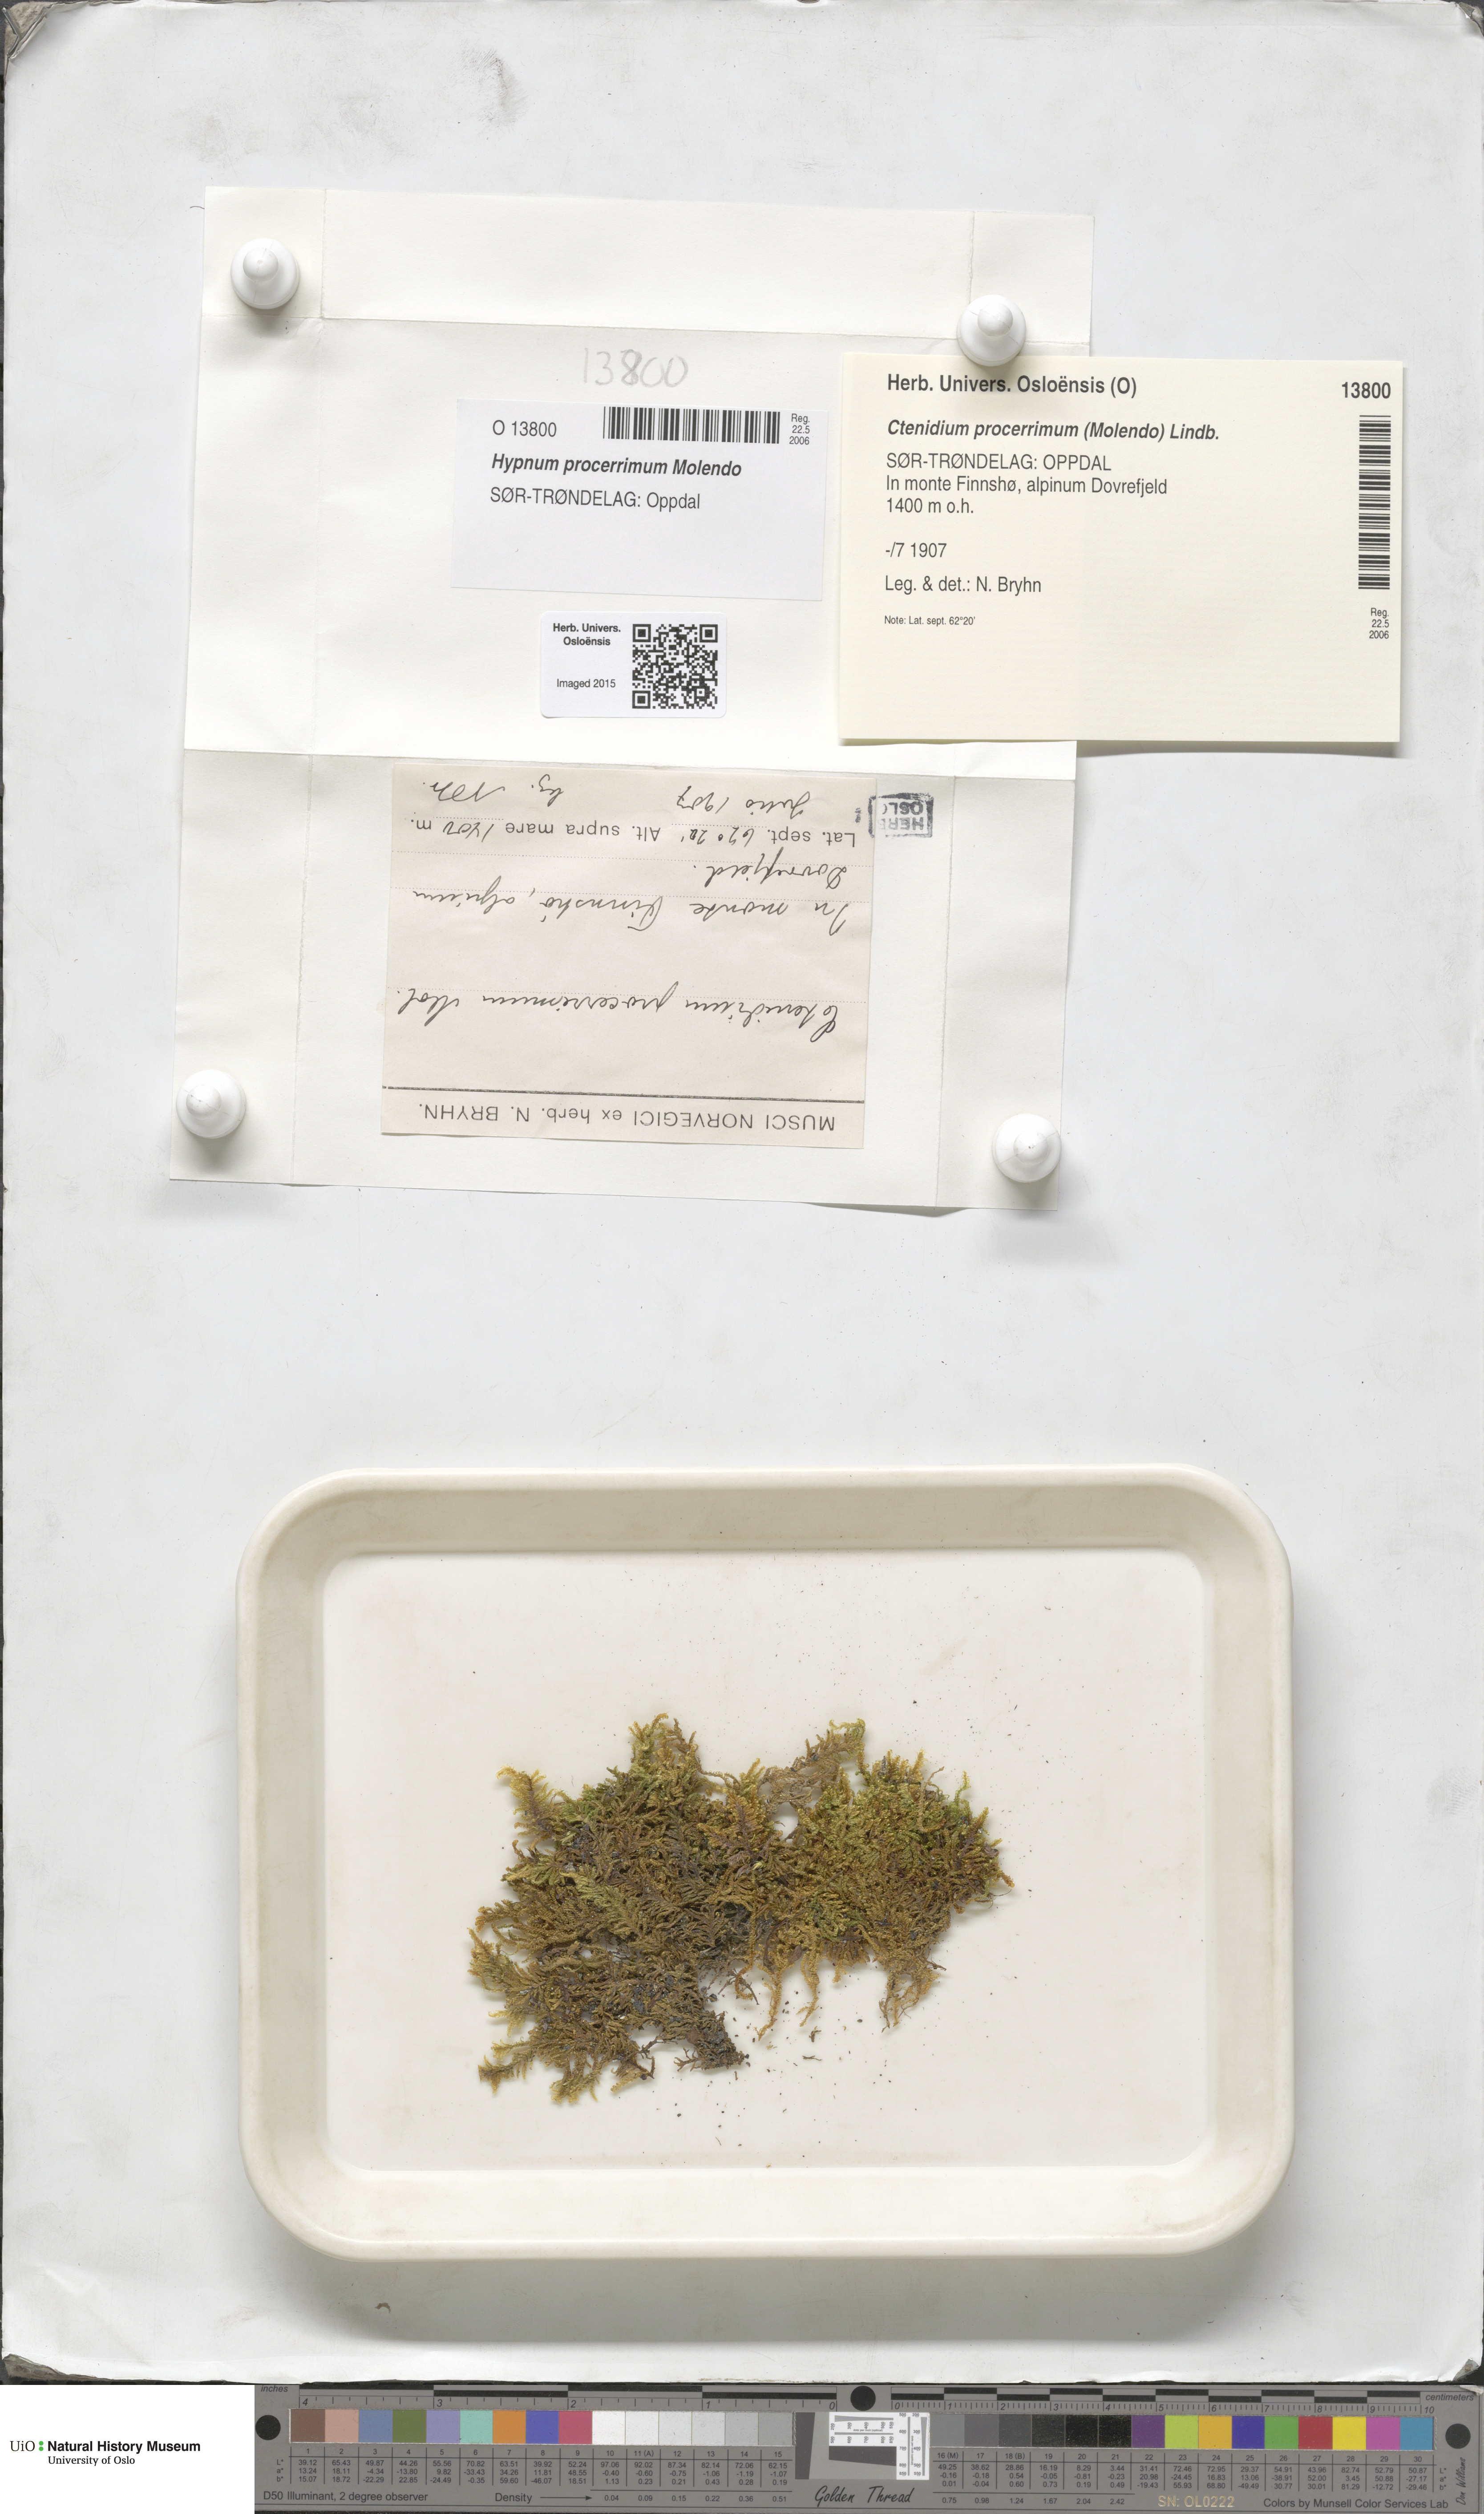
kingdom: Plantae
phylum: Bryophyta
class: Bryopsida
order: Hypnales
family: Pylaisiaceae
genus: Pseudostereodon
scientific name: Pseudostereodon procerrimus
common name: Alpine comb-moss
